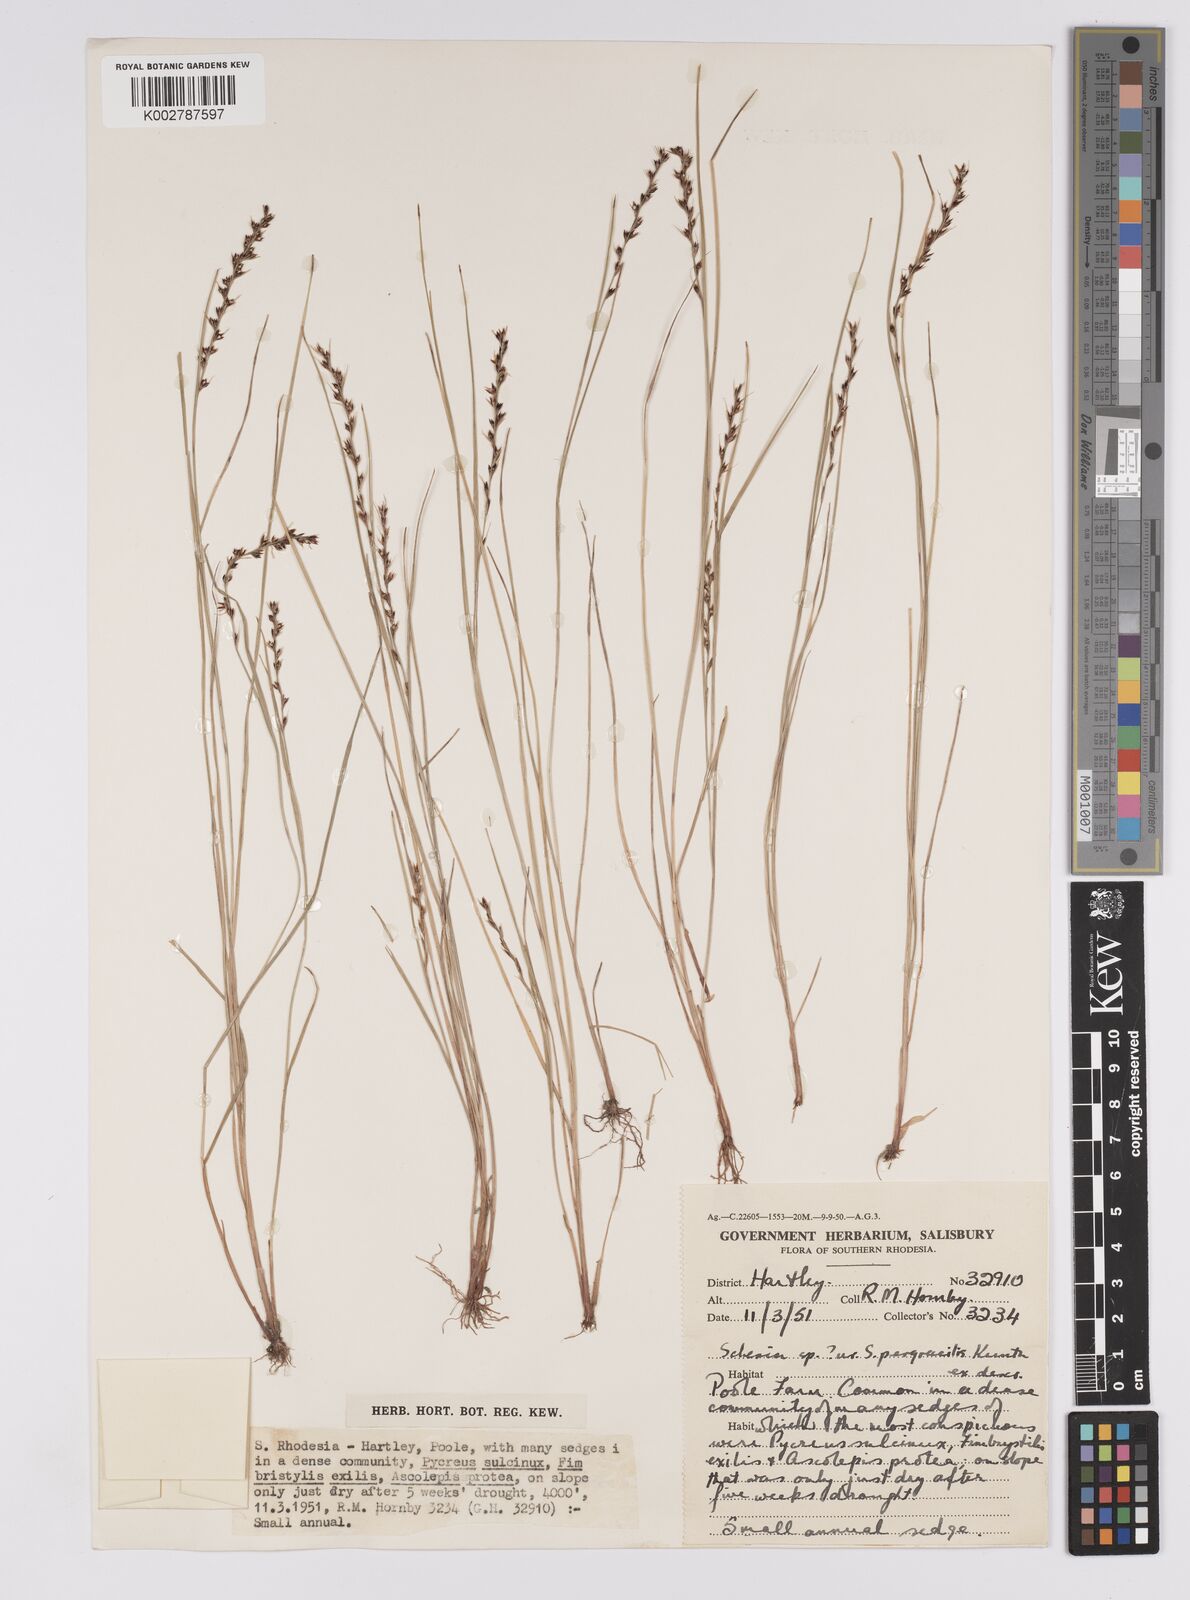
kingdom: Plantae
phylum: Tracheophyta
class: Liliopsida
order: Poales
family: Cyperaceae
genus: Scleria
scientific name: Scleria pergracilis
